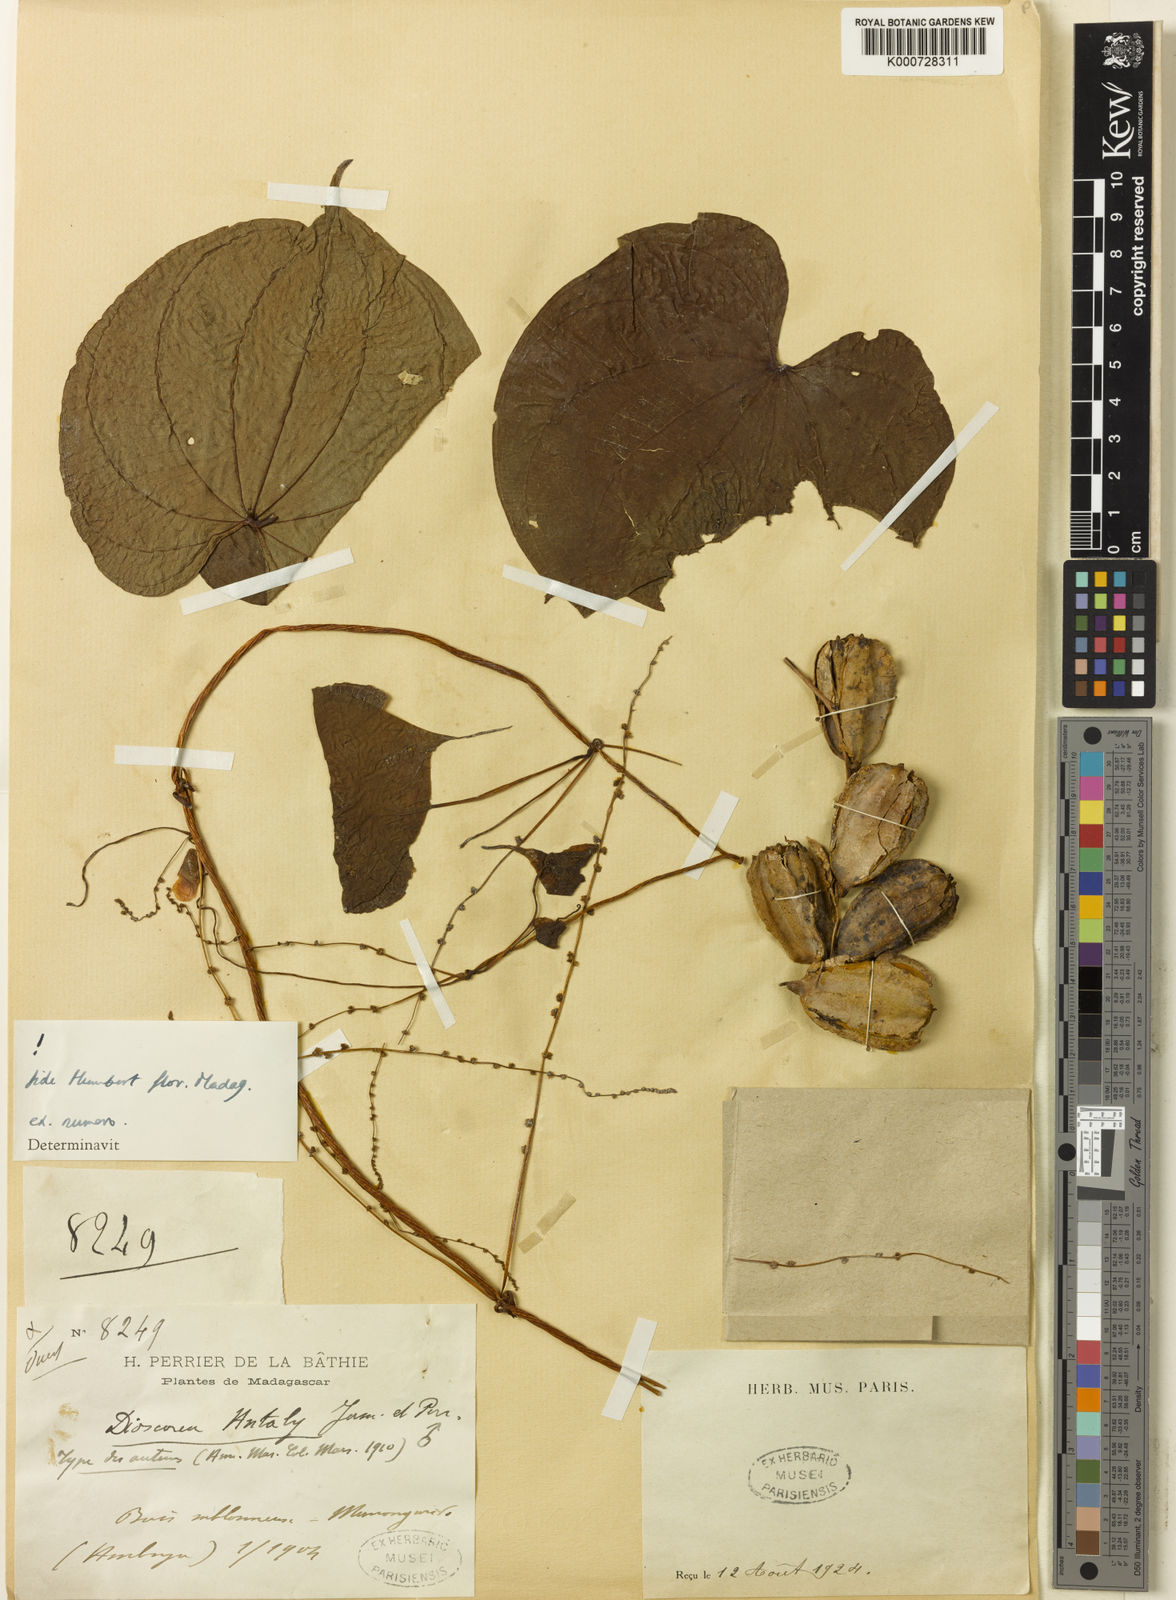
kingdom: Plantae
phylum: Tracheophyta
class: Liliopsida
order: Dioscoreales
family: Dioscoreaceae
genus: Dioscorea
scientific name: Dioscorea antaly
